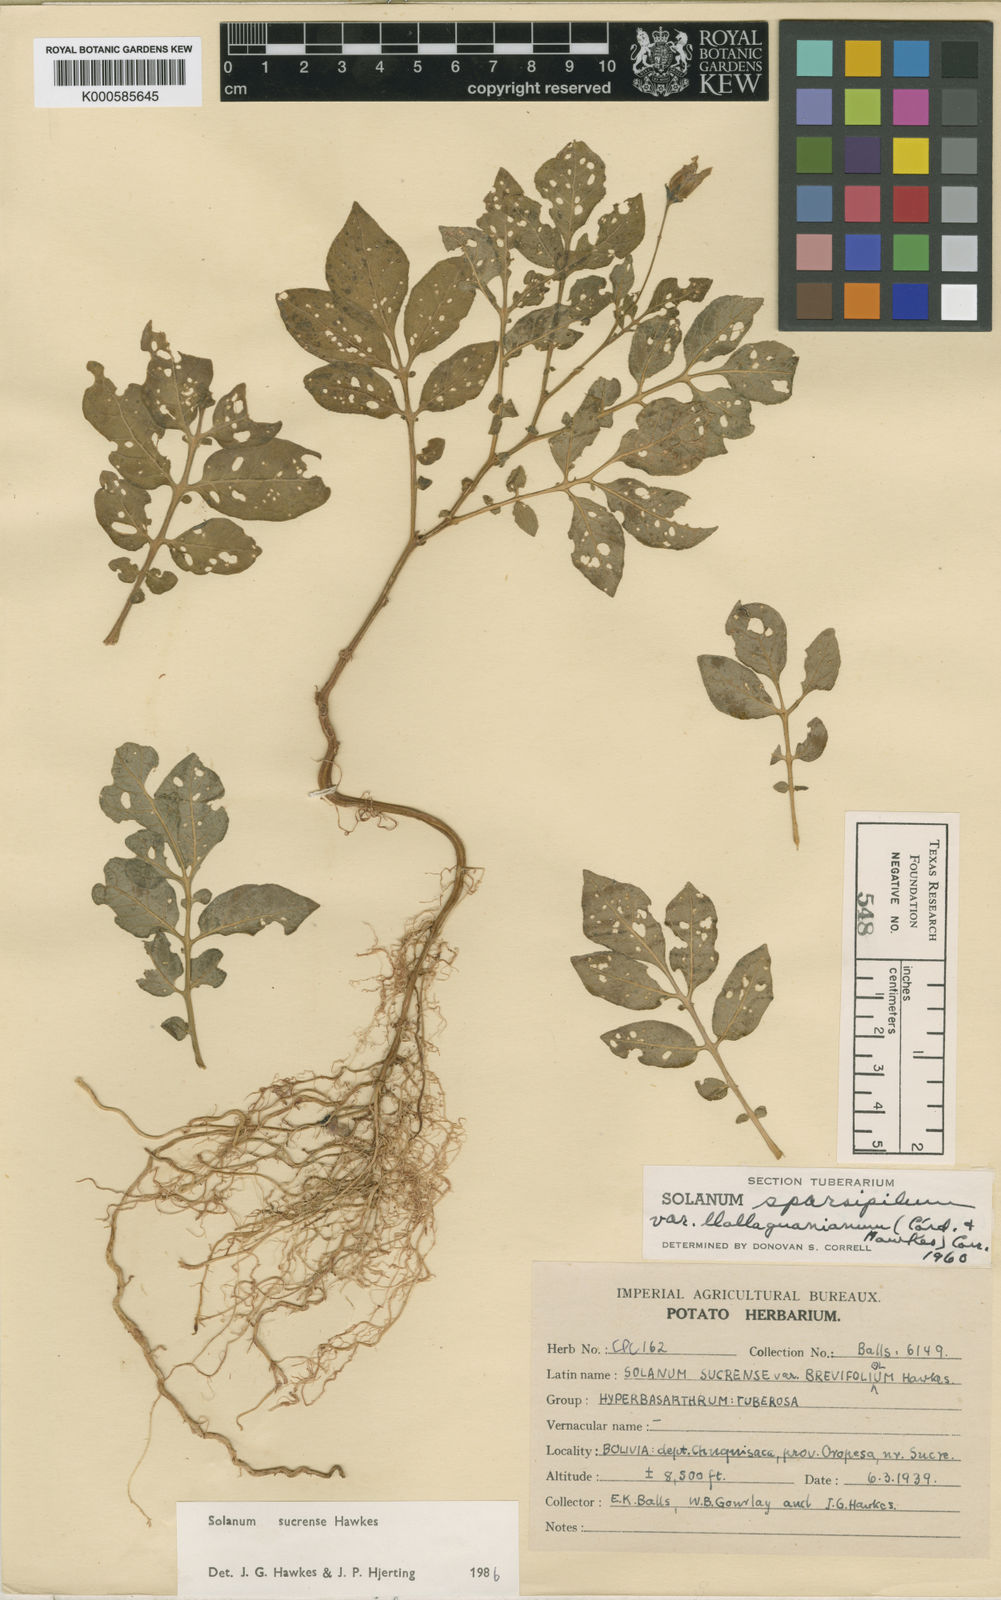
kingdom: Plantae
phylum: Tracheophyta
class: Magnoliopsida
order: Solanales
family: Solanaceae
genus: Solanum
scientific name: Solanum brevicaule
